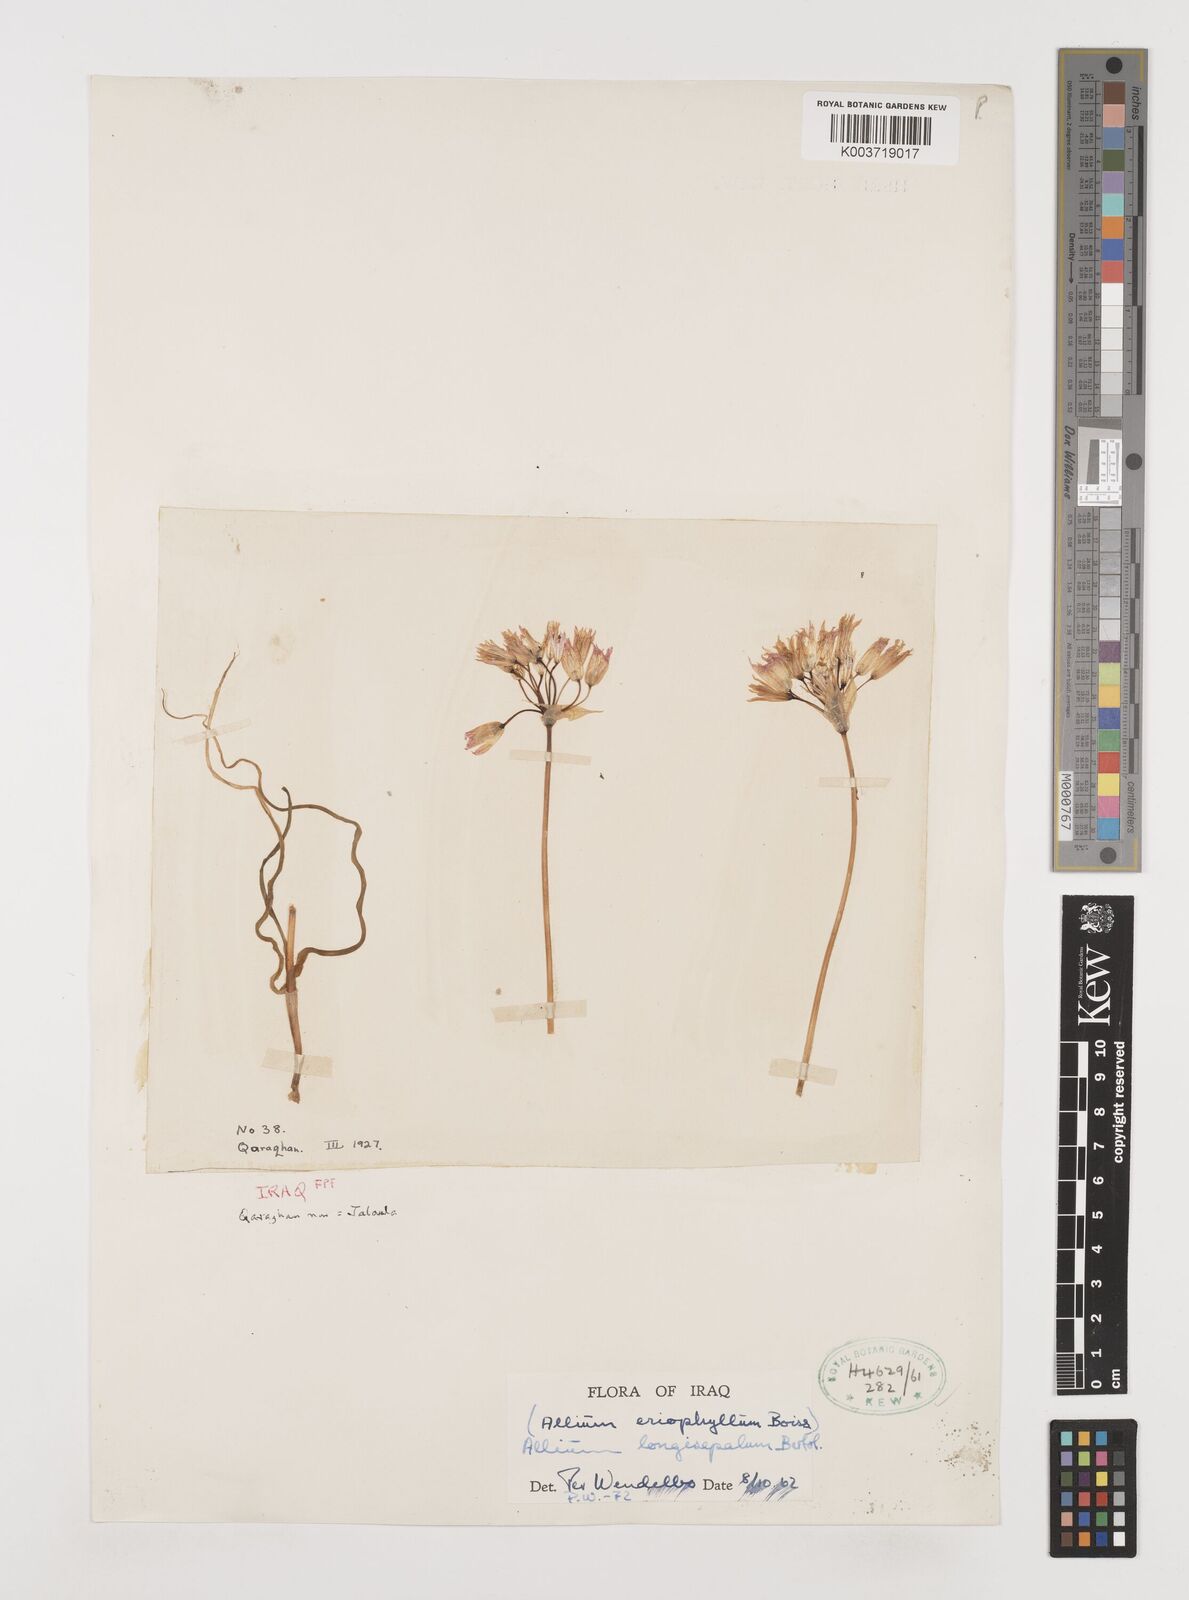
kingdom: Plantae
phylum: Tracheophyta
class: Liliopsida
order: Asparagales
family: Amaryllidaceae
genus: Allium
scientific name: Allium longisepalum
